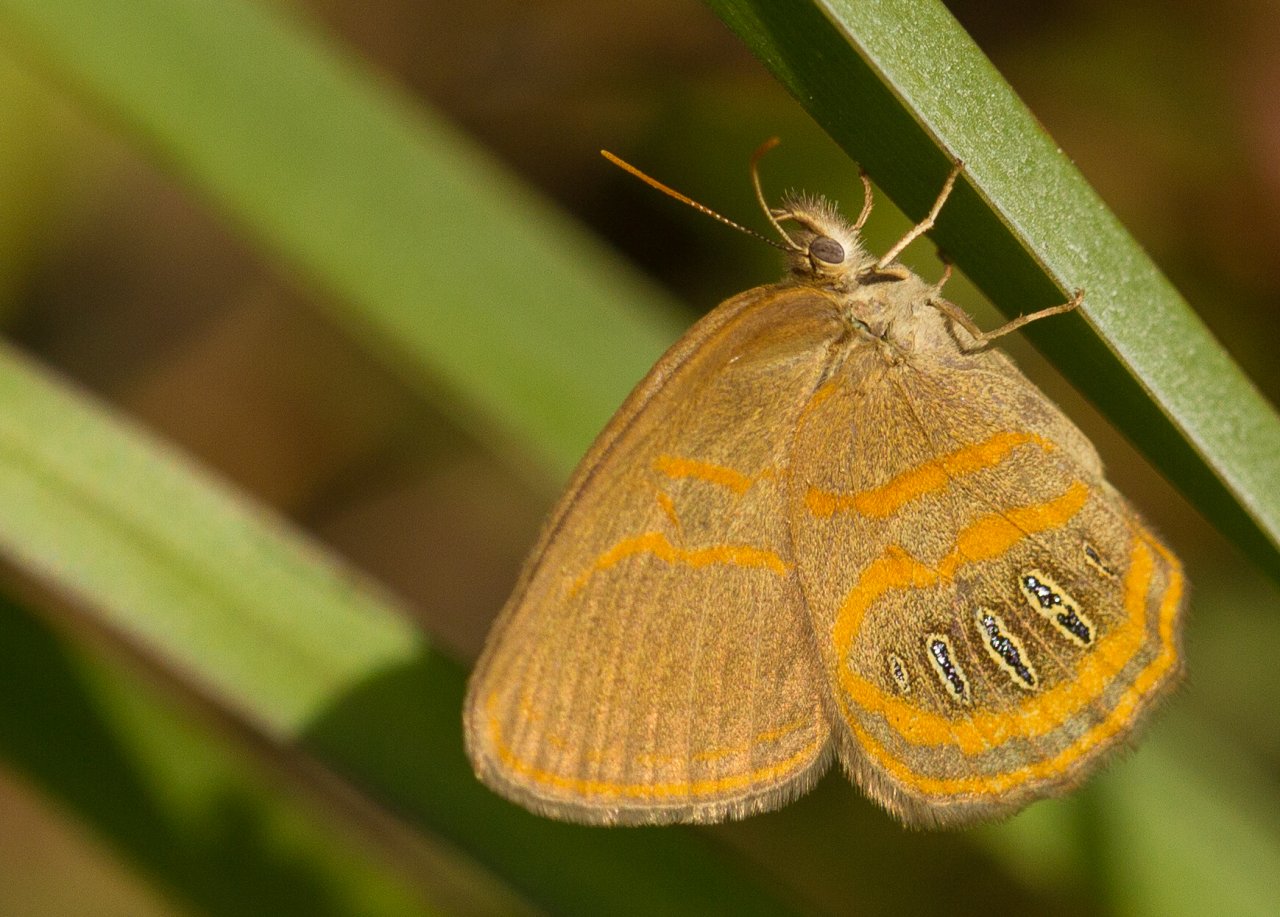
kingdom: Animalia
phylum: Arthropoda
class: Insecta
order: Lepidoptera
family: Nymphalidae
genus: Euptychia
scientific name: Euptychia phocion
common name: Georgia Satyr
